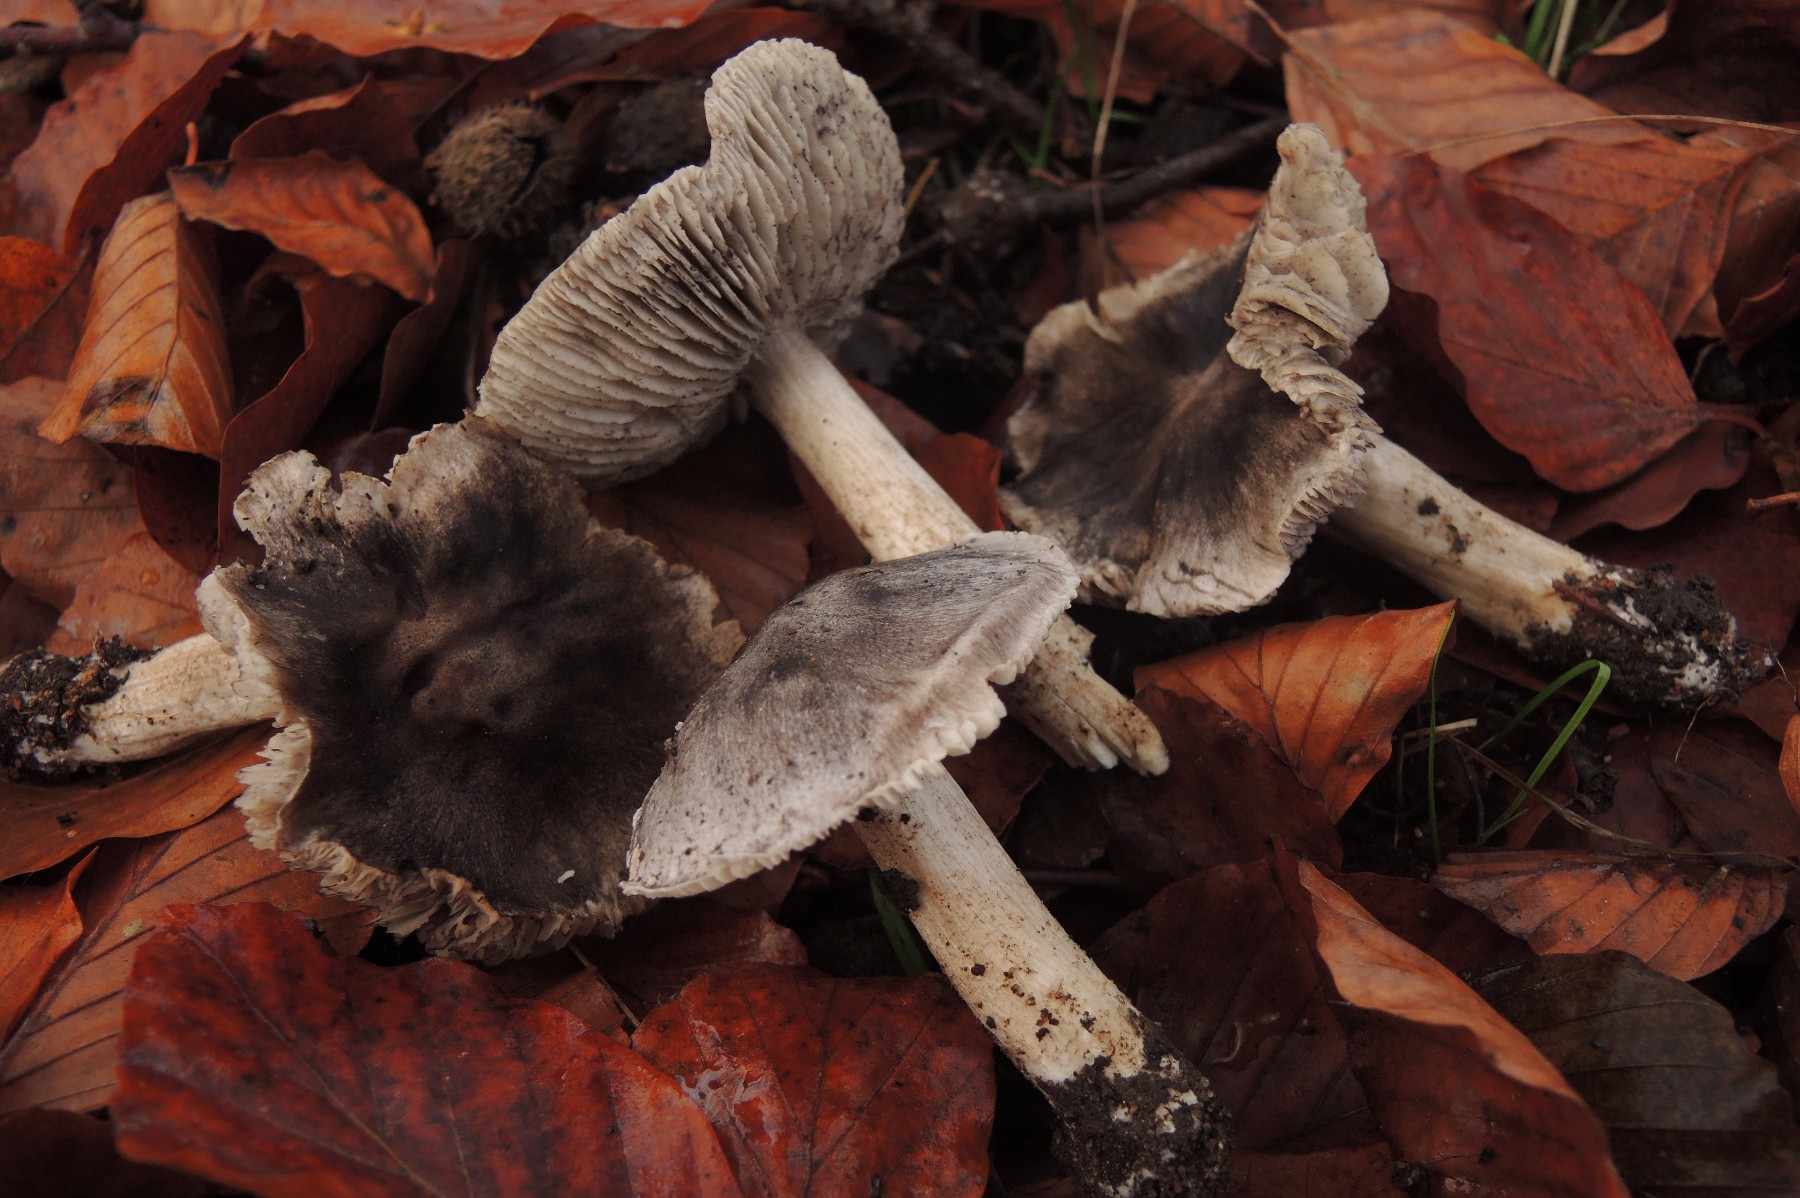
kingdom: Fungi
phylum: Basidiomycota
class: Agaricomycetes
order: Agaricales
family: Tricholomataceae
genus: Tricholoma
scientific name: Tricholoma sciodes
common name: stribet ridderhat
